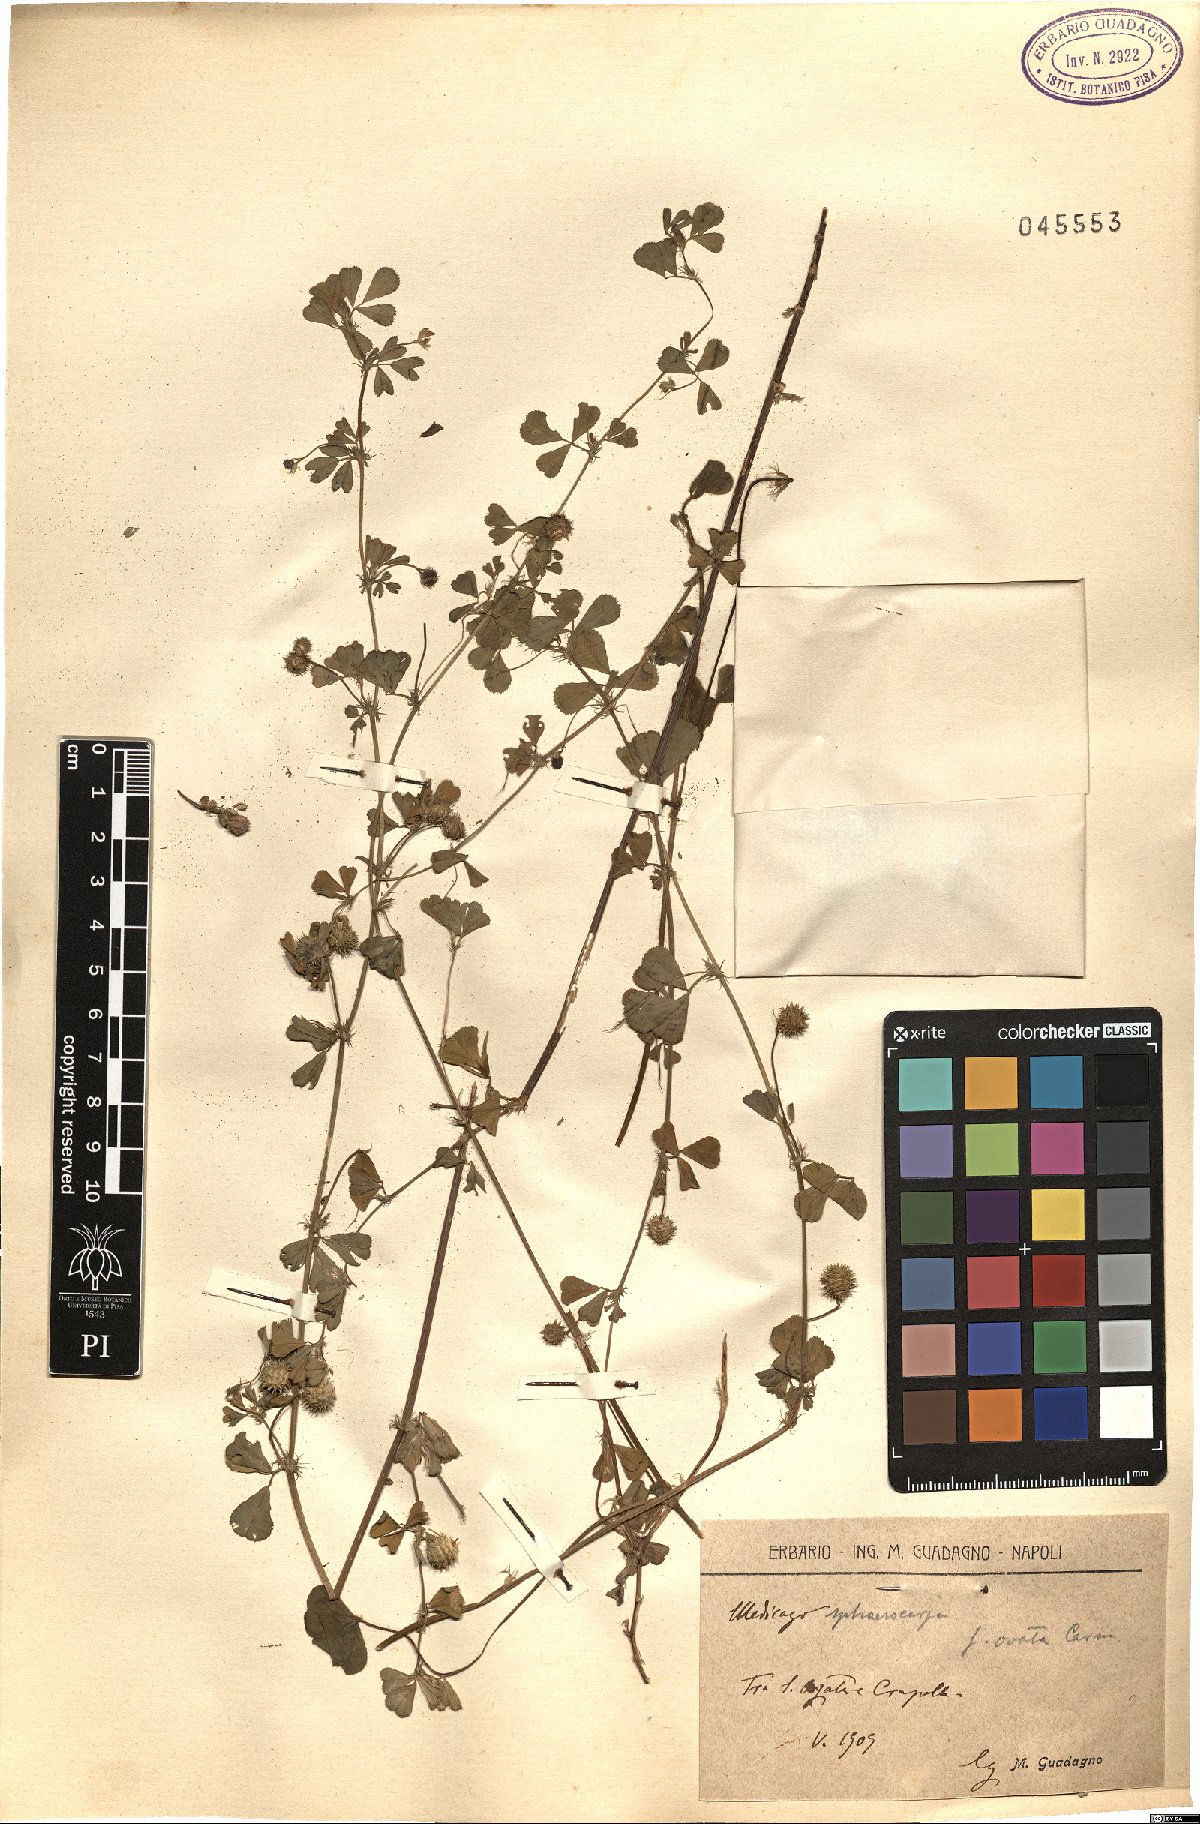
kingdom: Plantae
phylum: Tracheophyta
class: Magnoliopsida
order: Fabales
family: Fabaceae
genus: Medicago
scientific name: Medicago sphaerocarpos
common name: Sphere medic
